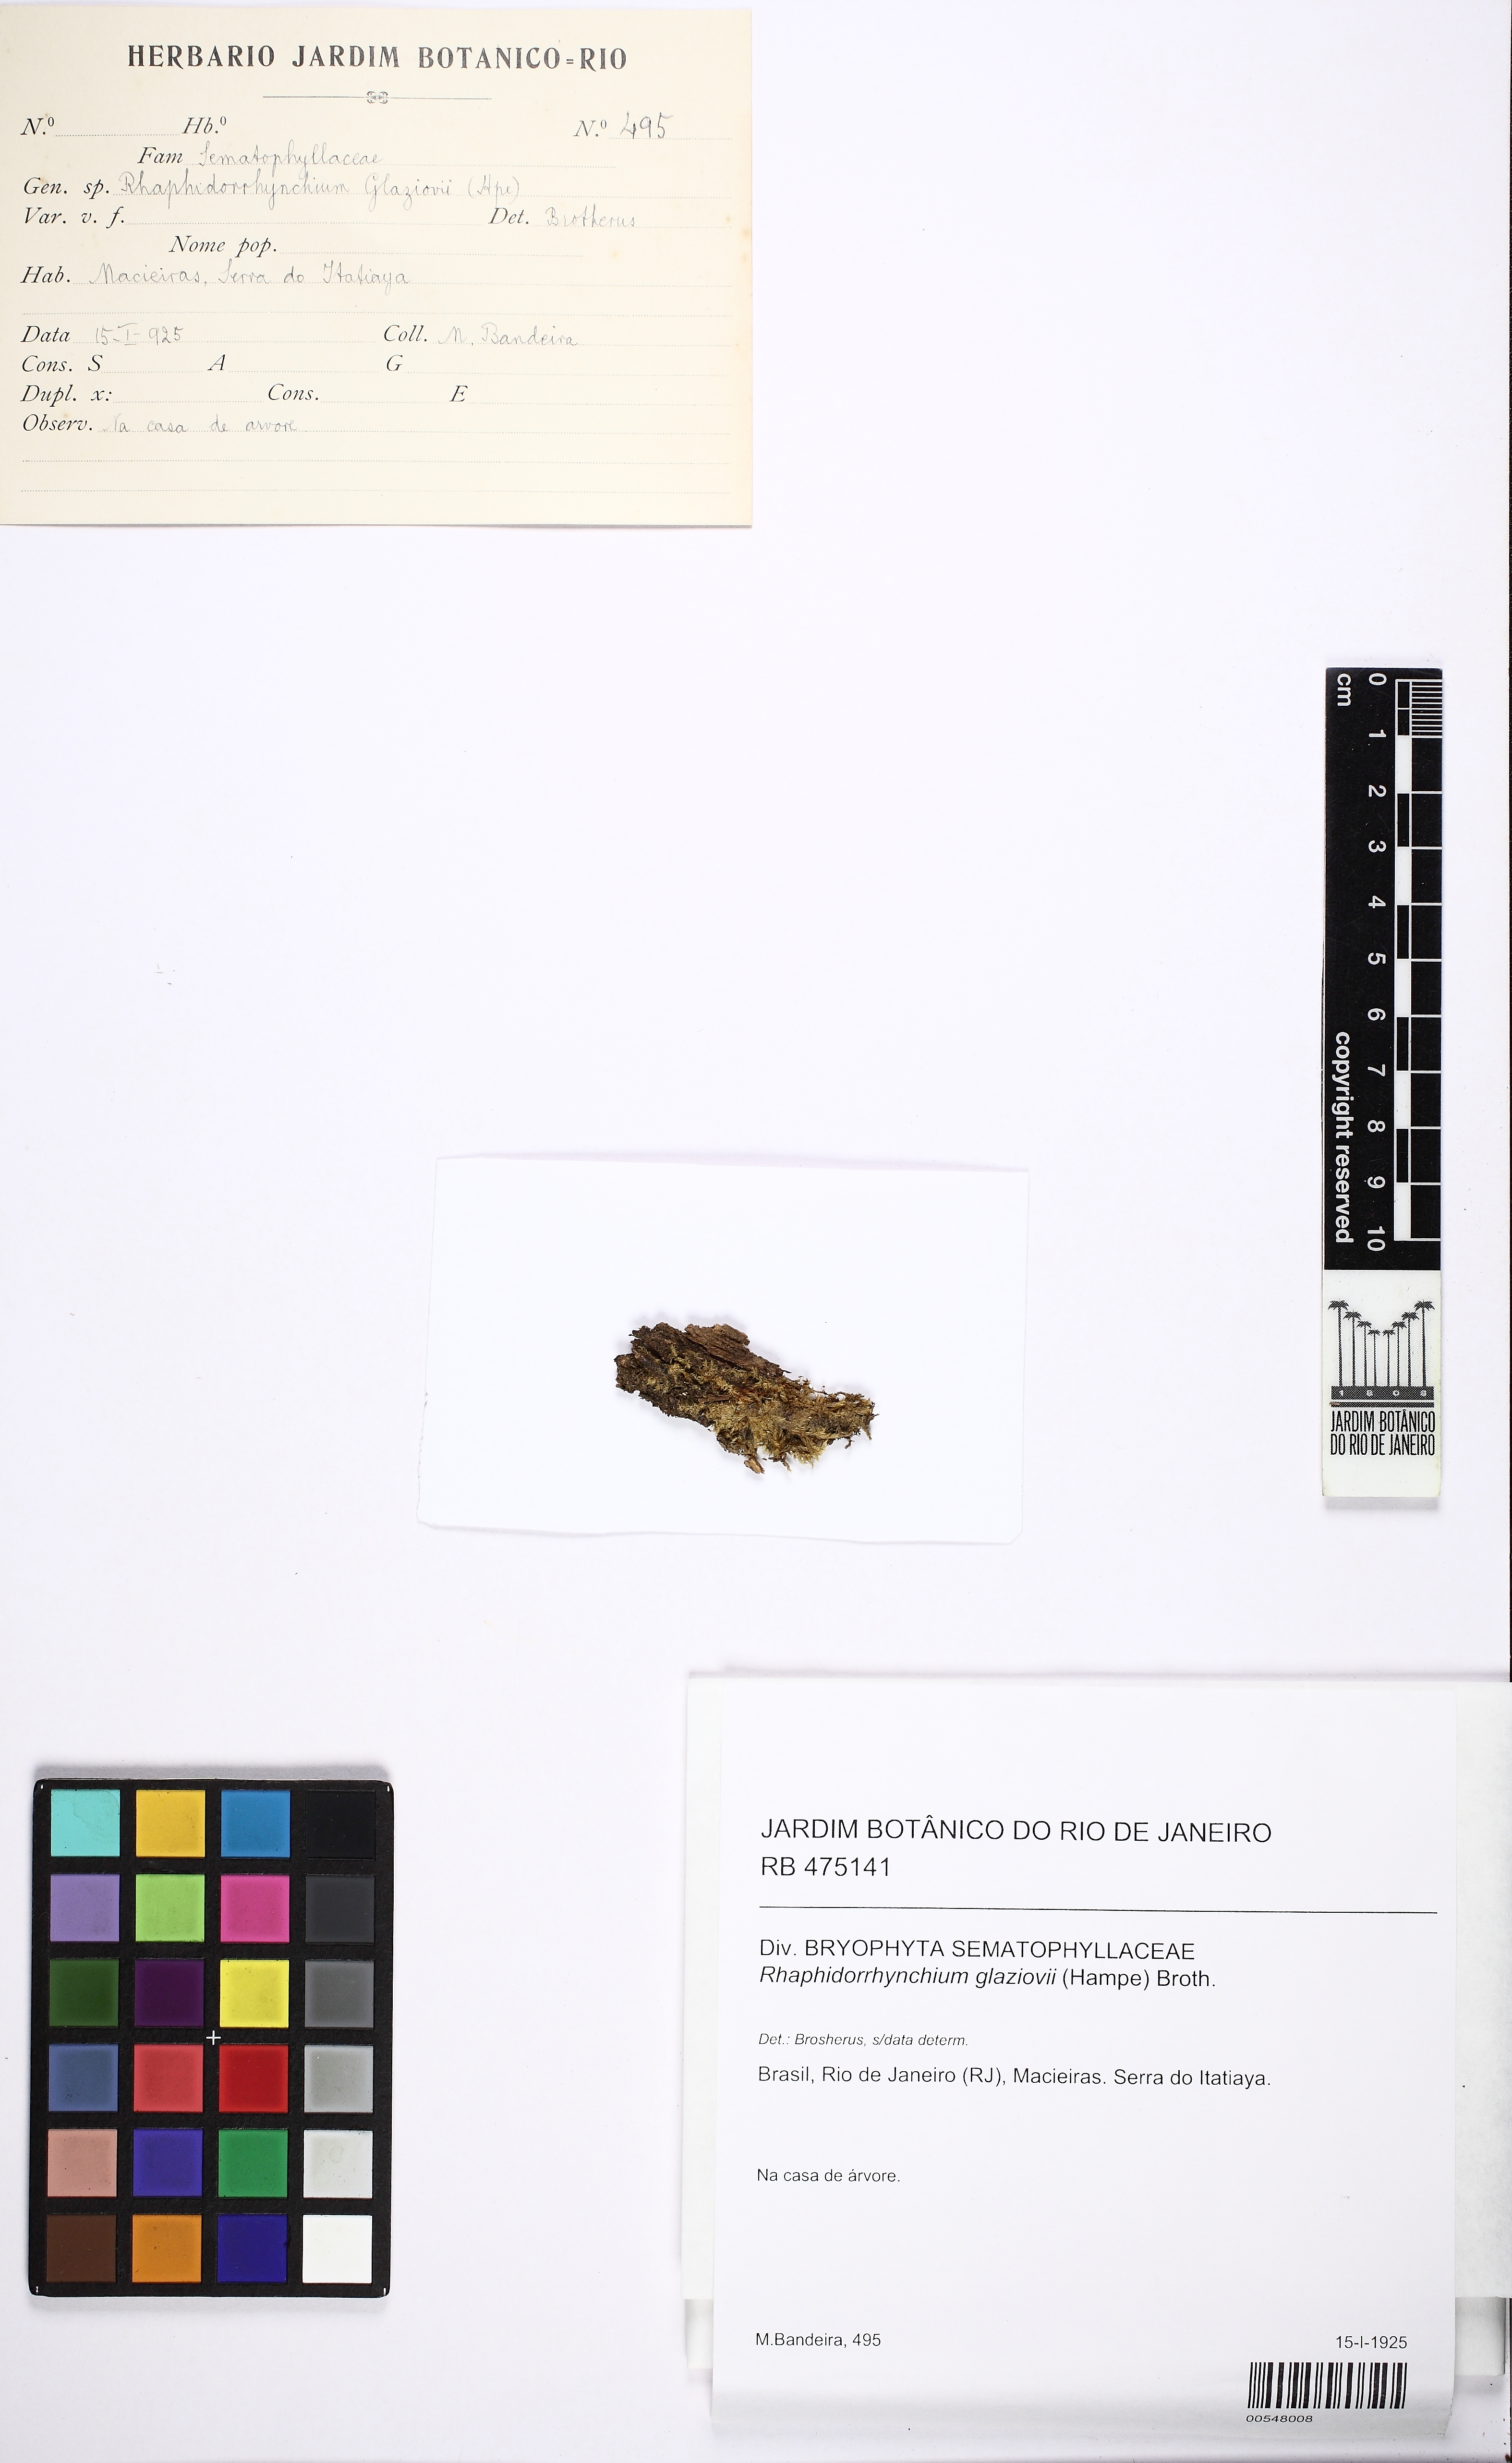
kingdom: Plantae
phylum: Bryophyta
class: Bryopsida
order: Hypnales
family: Sematophyllaceae
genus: Trichosteleum
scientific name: Trichosteleum glaziovii
